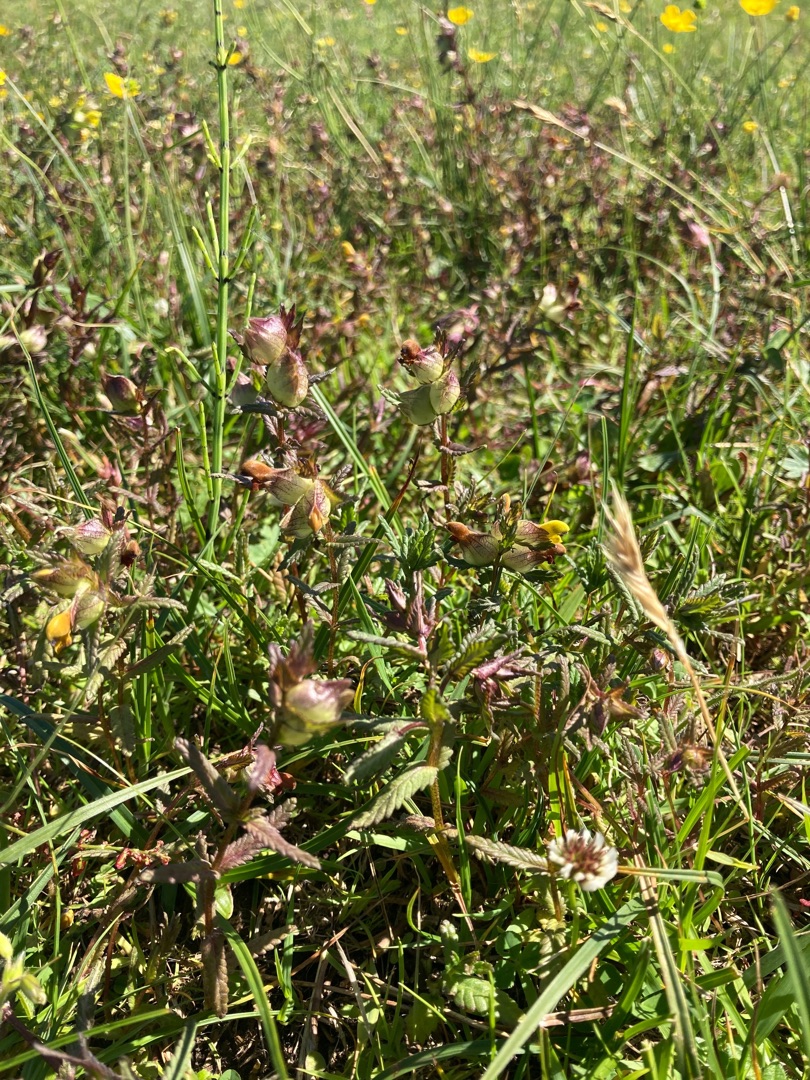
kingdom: Plantae
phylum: Tracheophyta
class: Magnoliopsida
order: Lamiales
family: Orobanchaceae
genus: Rhinanthus
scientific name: Rhinanthus minor
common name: Liden skjaller
